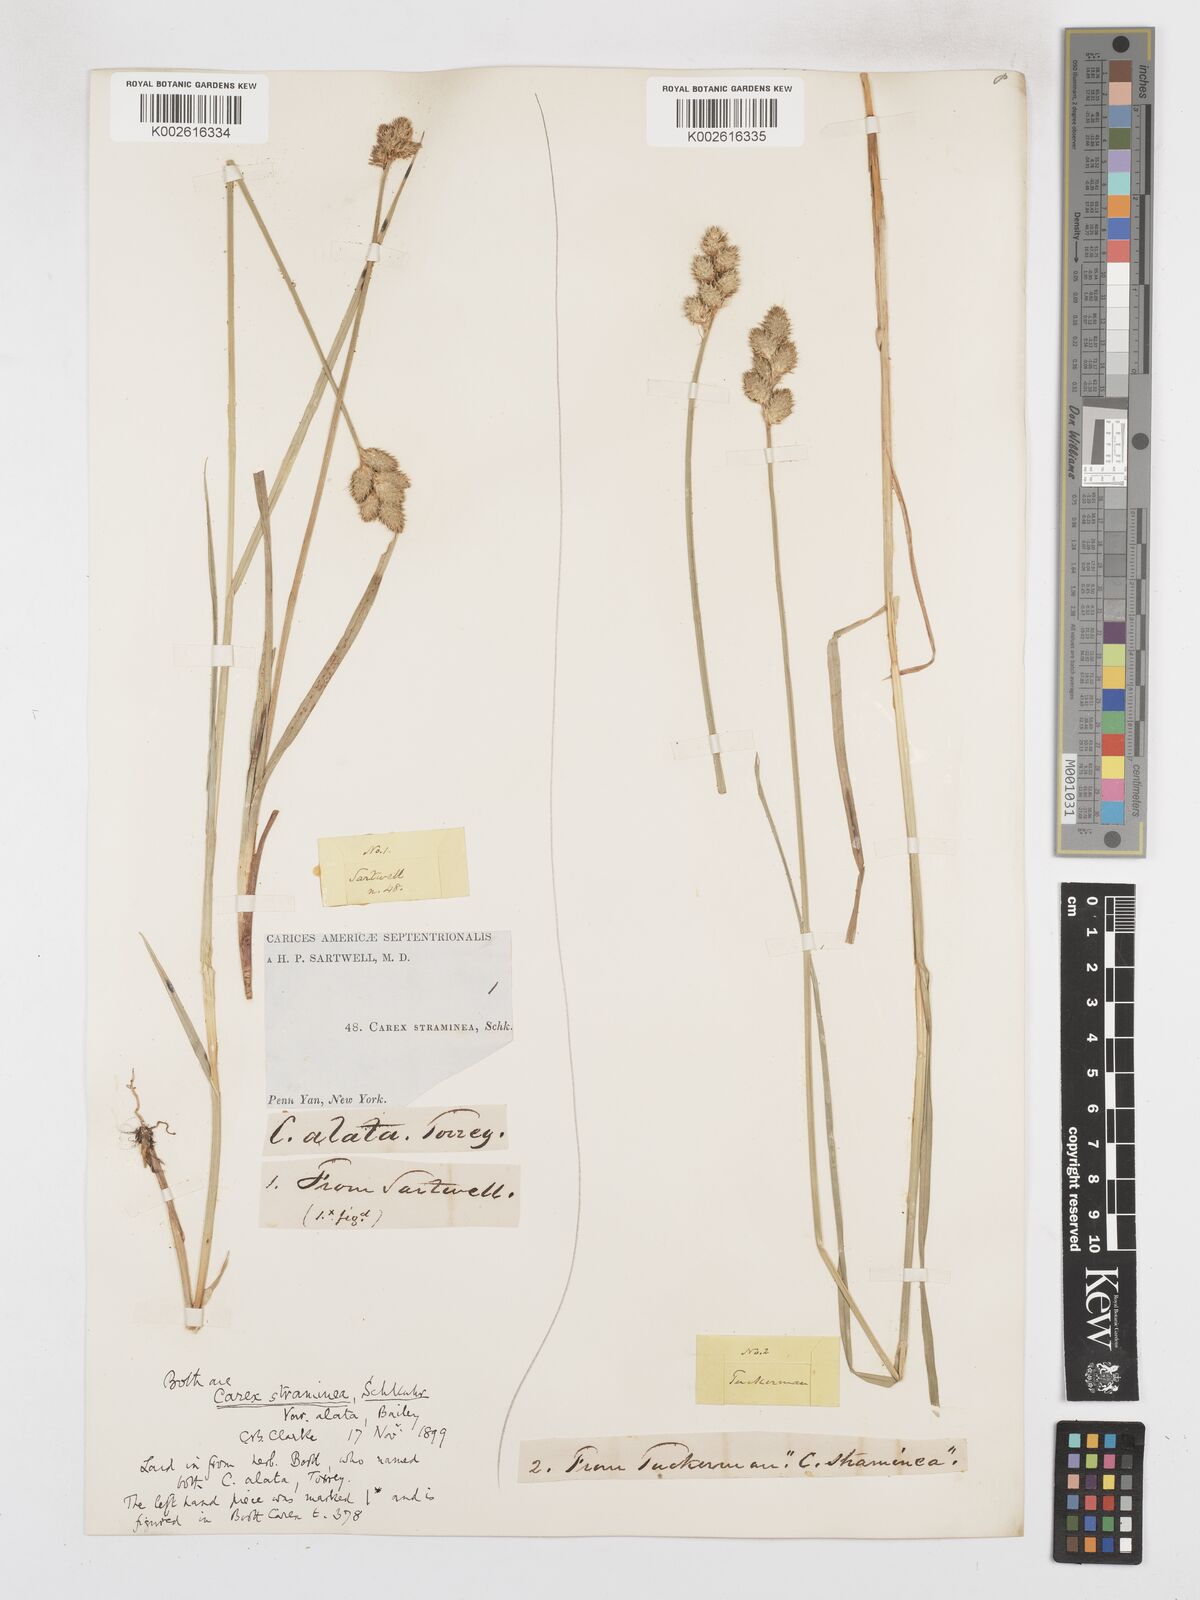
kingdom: Plantae
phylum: Tracheophyta
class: Liliopsida
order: Poales
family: Cyperaceae
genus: Carex
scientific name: Carex alata
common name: Broad-winged sedge
